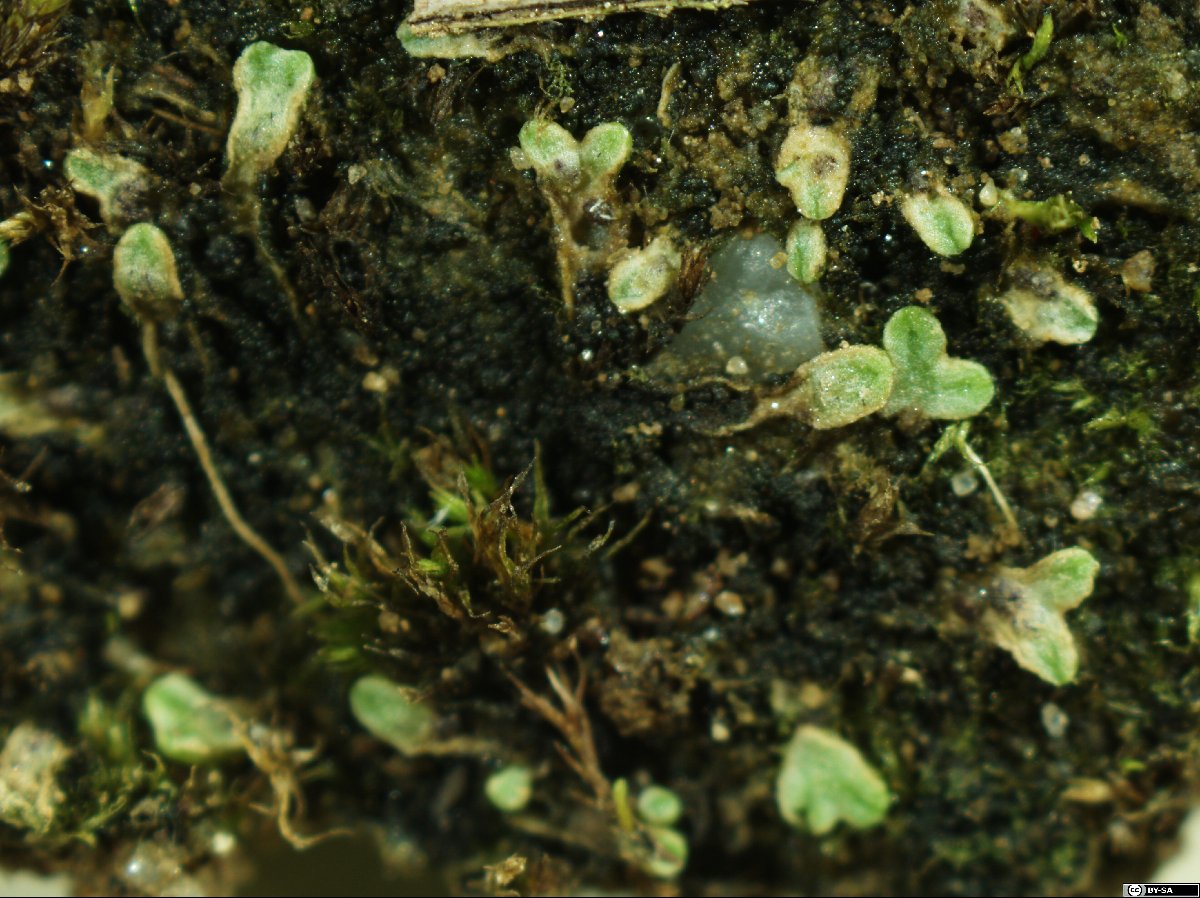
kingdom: Plantae
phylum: Marchantiophyta
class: Marchantiopsida
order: Marchantiales
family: Ricciaceae
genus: Riccia
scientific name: Riccia bifurca
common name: Lizard crystalwort
